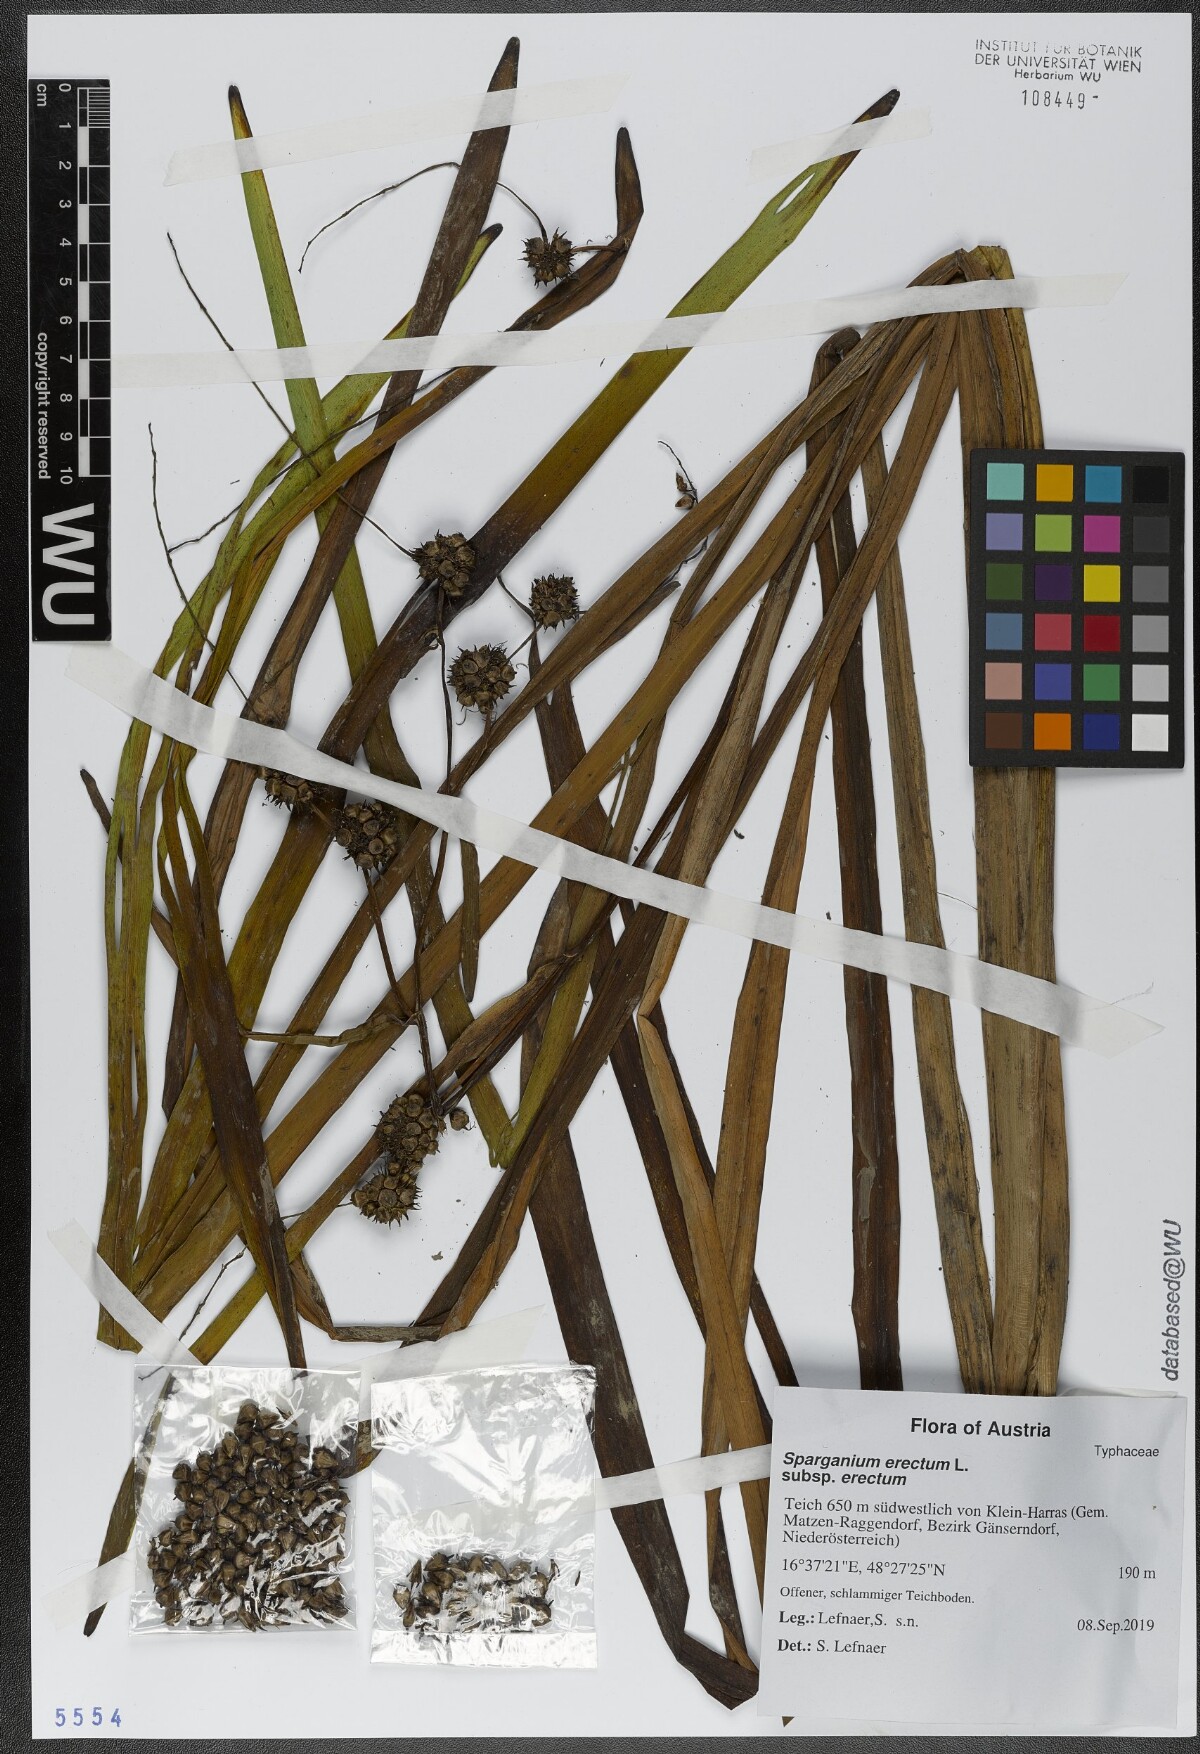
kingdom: Plantae
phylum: Tracheophyta
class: Liliopsida
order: Poales
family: Typhaceae
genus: Sparganium
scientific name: Sparganium erectum
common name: Branched bur-reed
